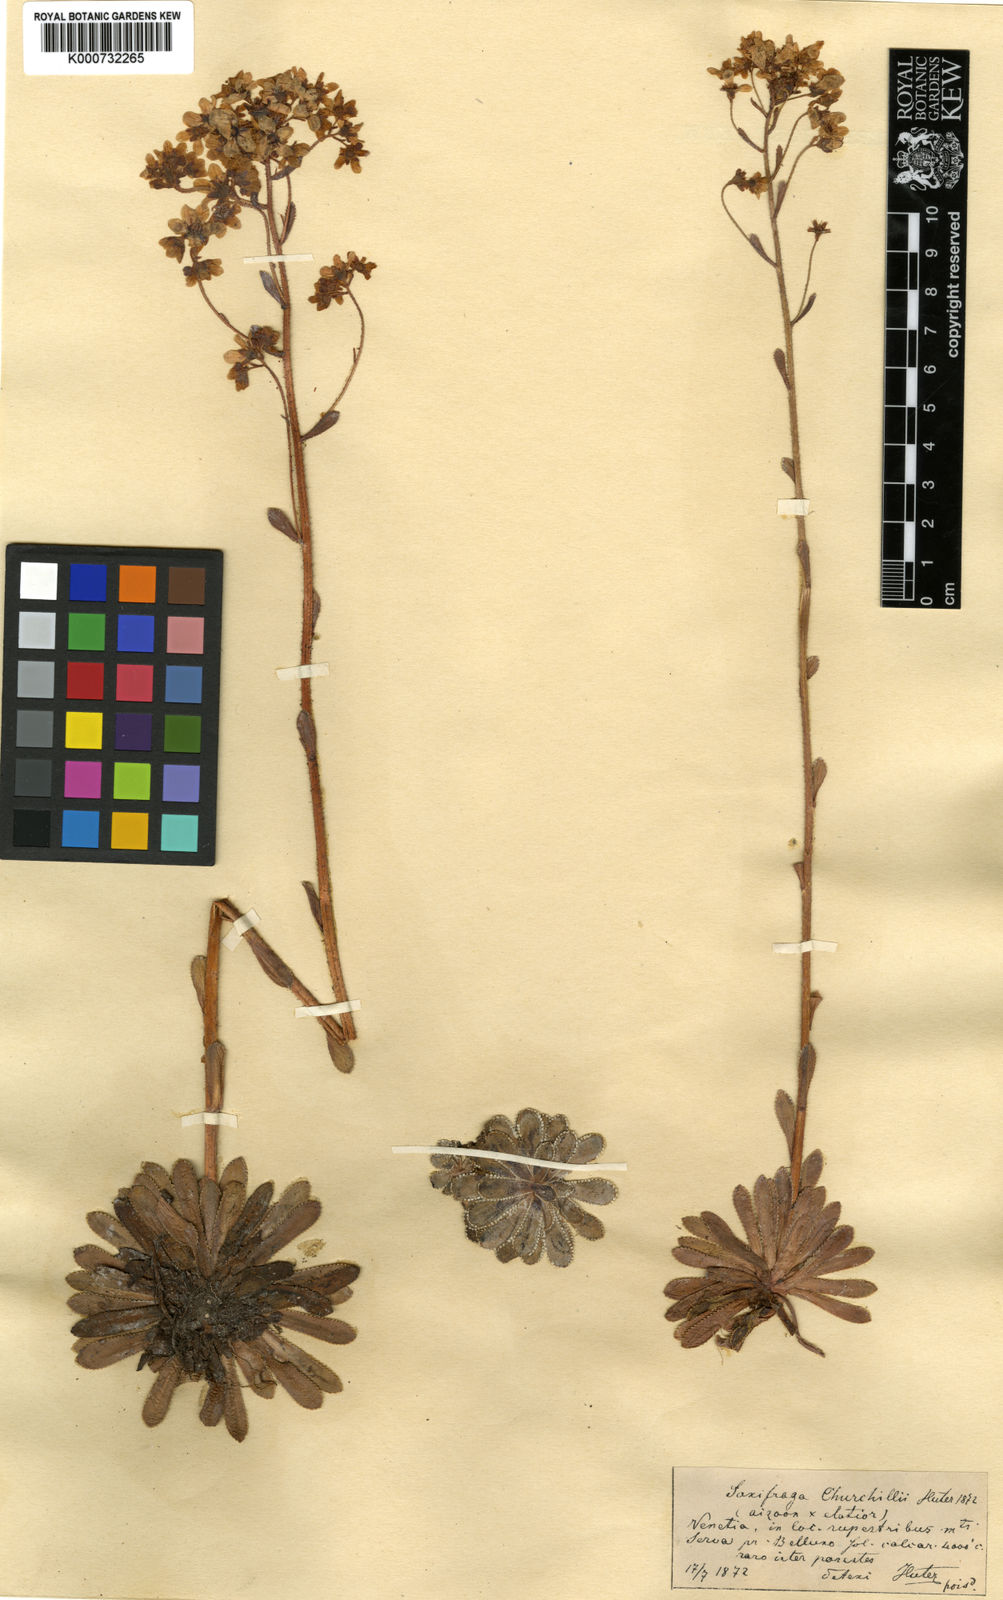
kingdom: Plantae
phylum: Tracheophyta
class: Magnoliopsida
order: Saxifragales
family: Saxifragaceae
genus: Saxifraga
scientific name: Saxifraga paniculata
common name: Livelong saxifrage
